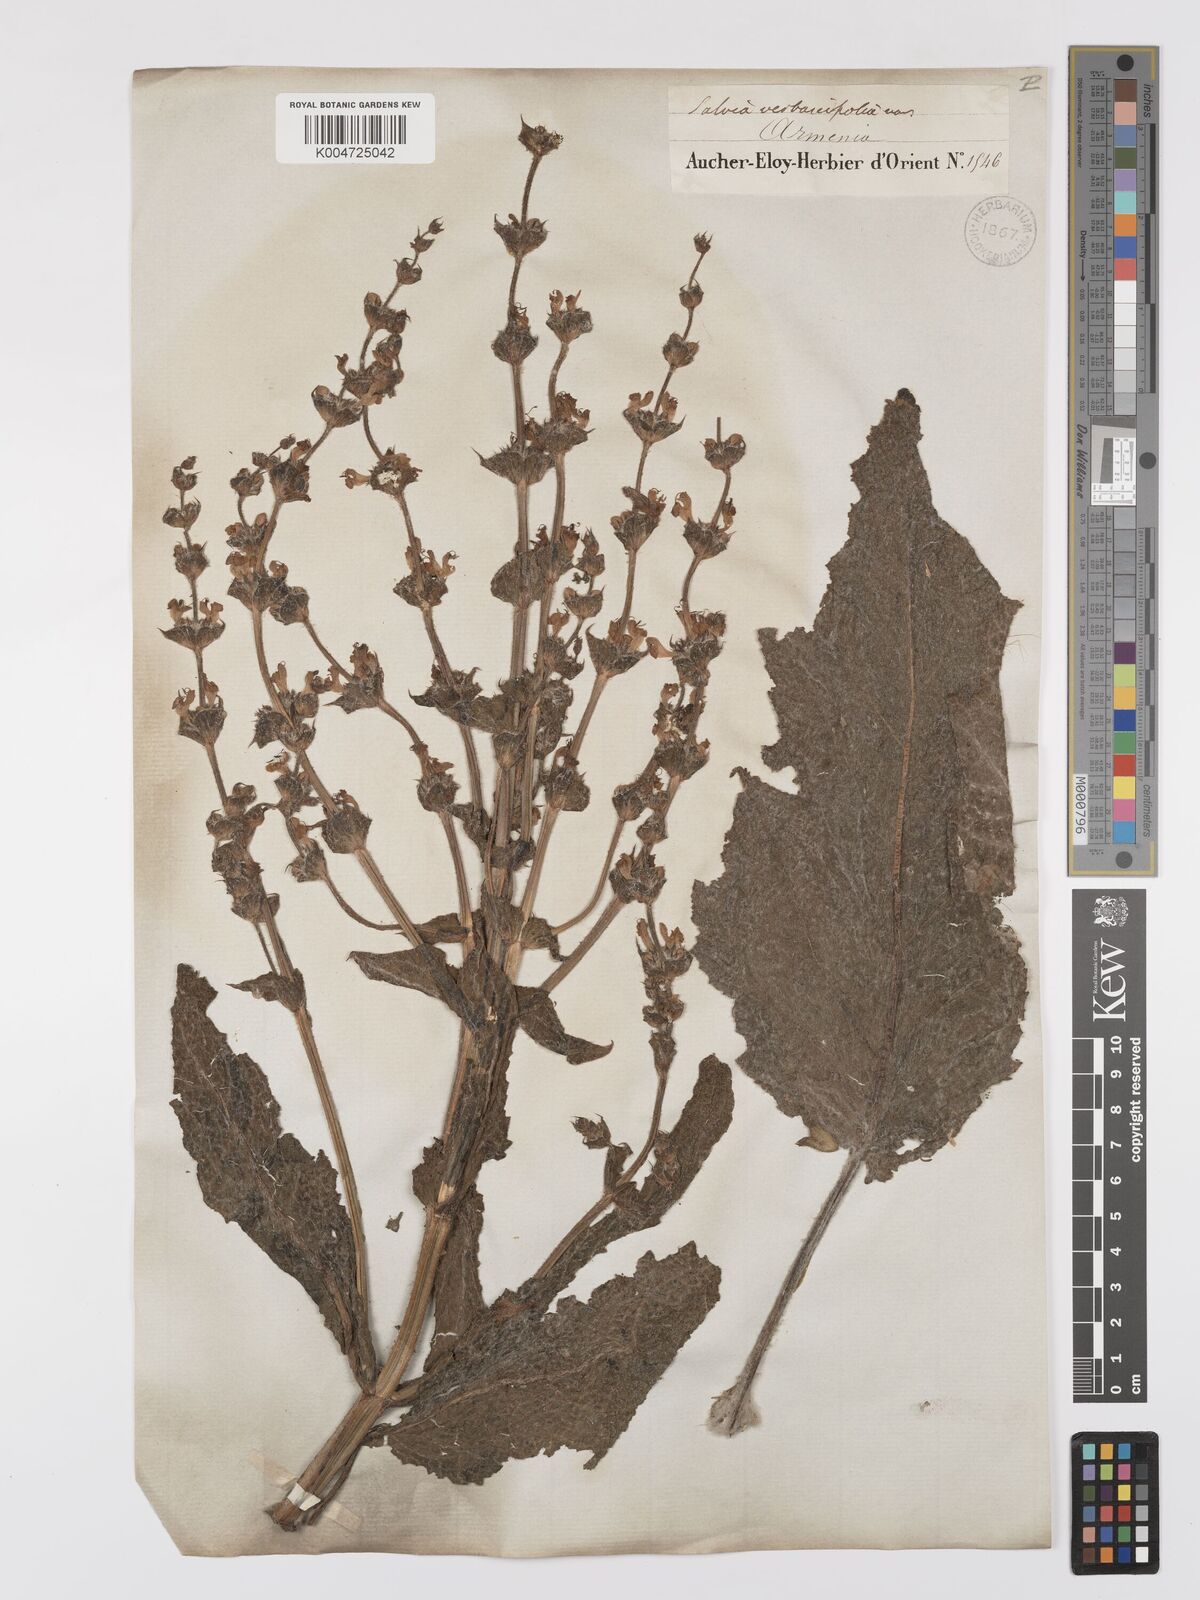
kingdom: Plantae
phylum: Tracheophyta
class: Magnoliopsida
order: Lamiales
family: Lamiaceae
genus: Salvia
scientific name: Salvia verbascifolia
